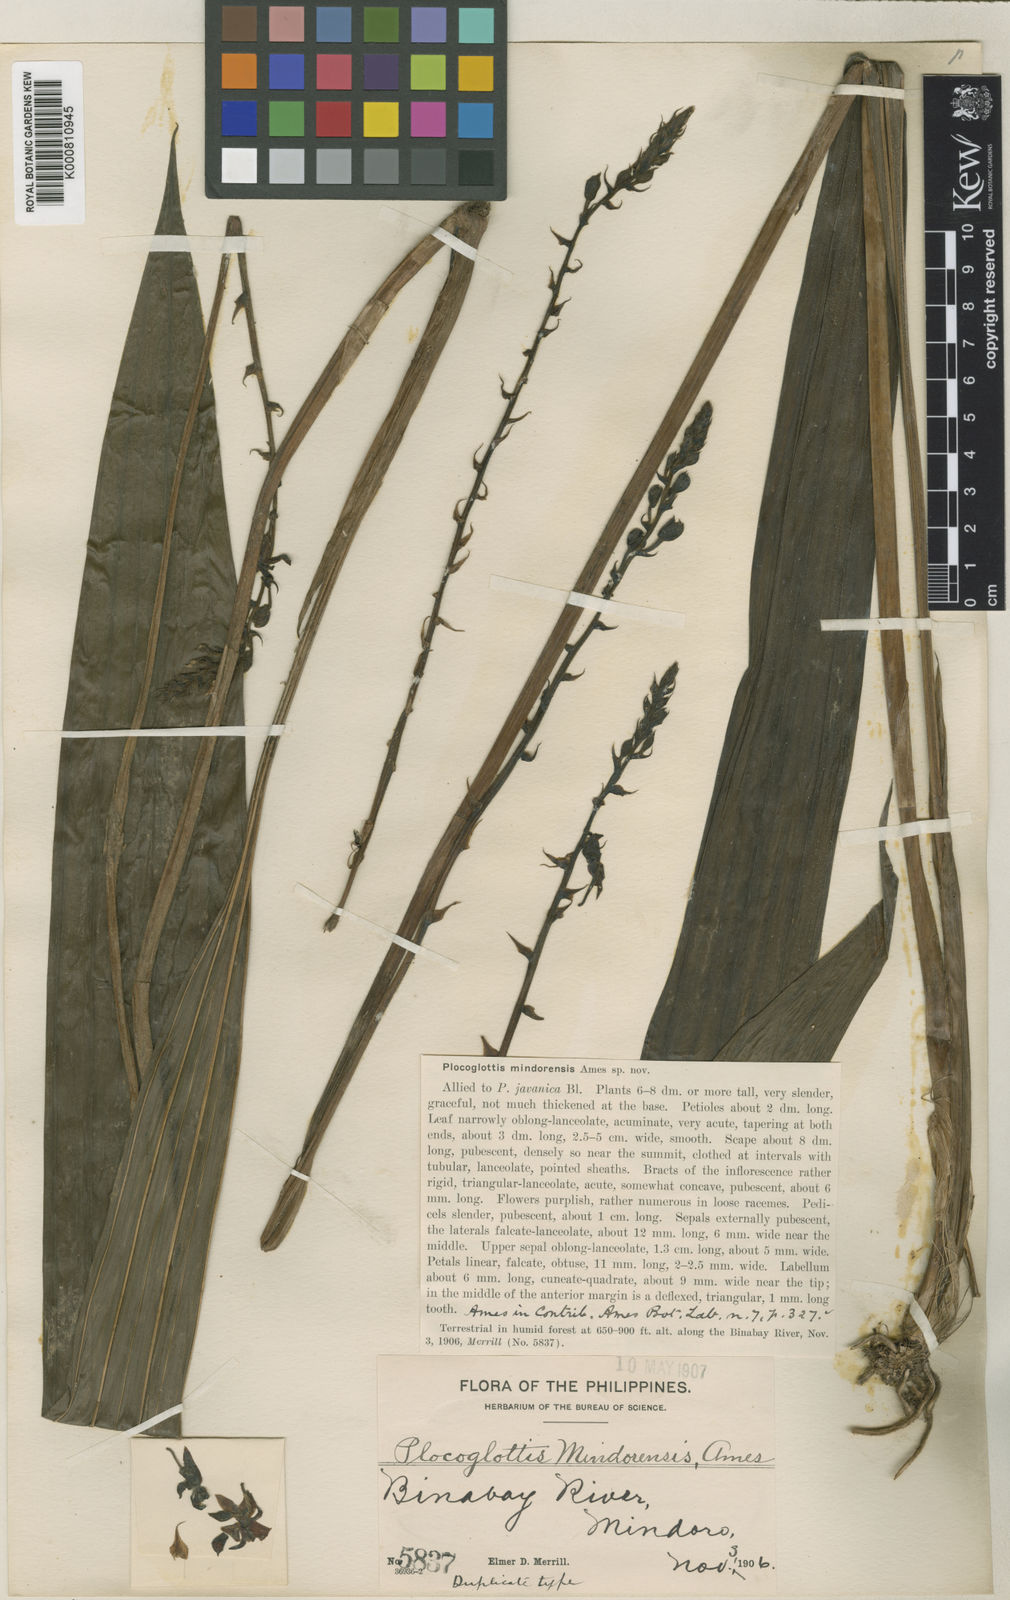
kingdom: Plantae
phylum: Tracheophyta
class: Liliopsida
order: Asparagales
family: Orchidaceae
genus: Plocoglottis
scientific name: Plocoglottis mindorensis
